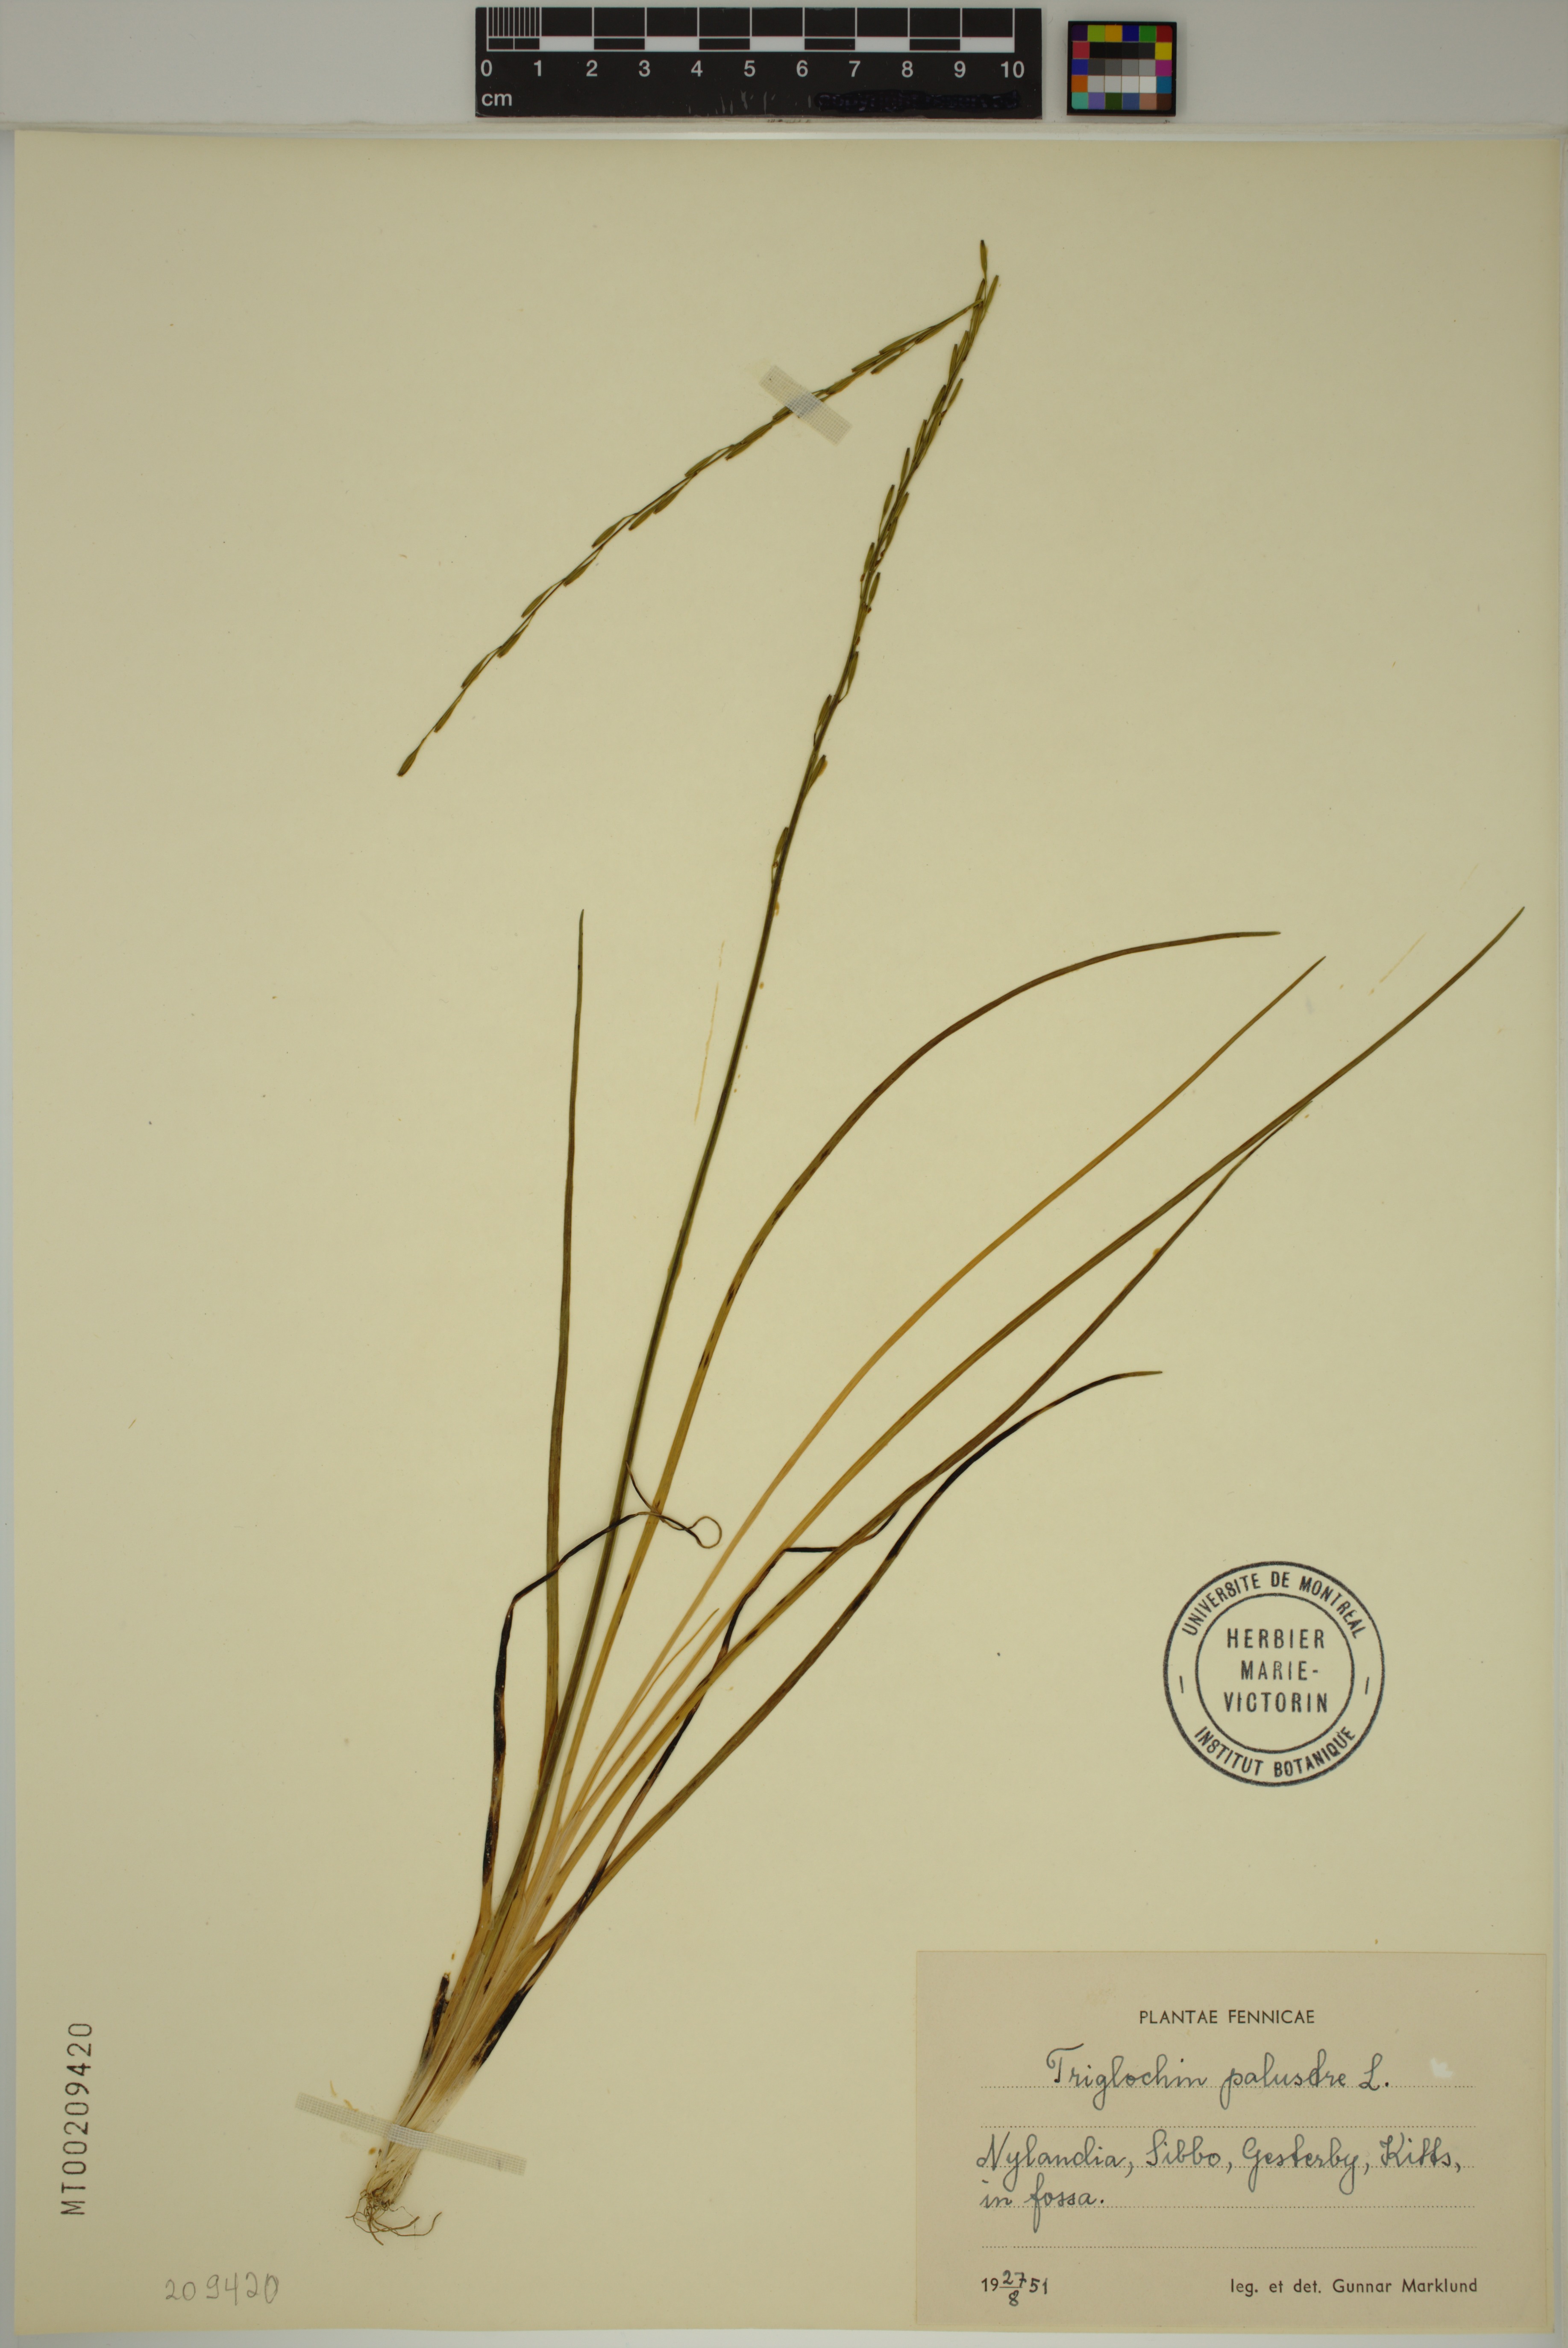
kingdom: Plantae
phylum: Tracheophyta
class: Liliopsida
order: Alismatales
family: Juncaginaceae
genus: Triglochin
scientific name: Triglochin palustris
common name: Marsh arrowgrass
